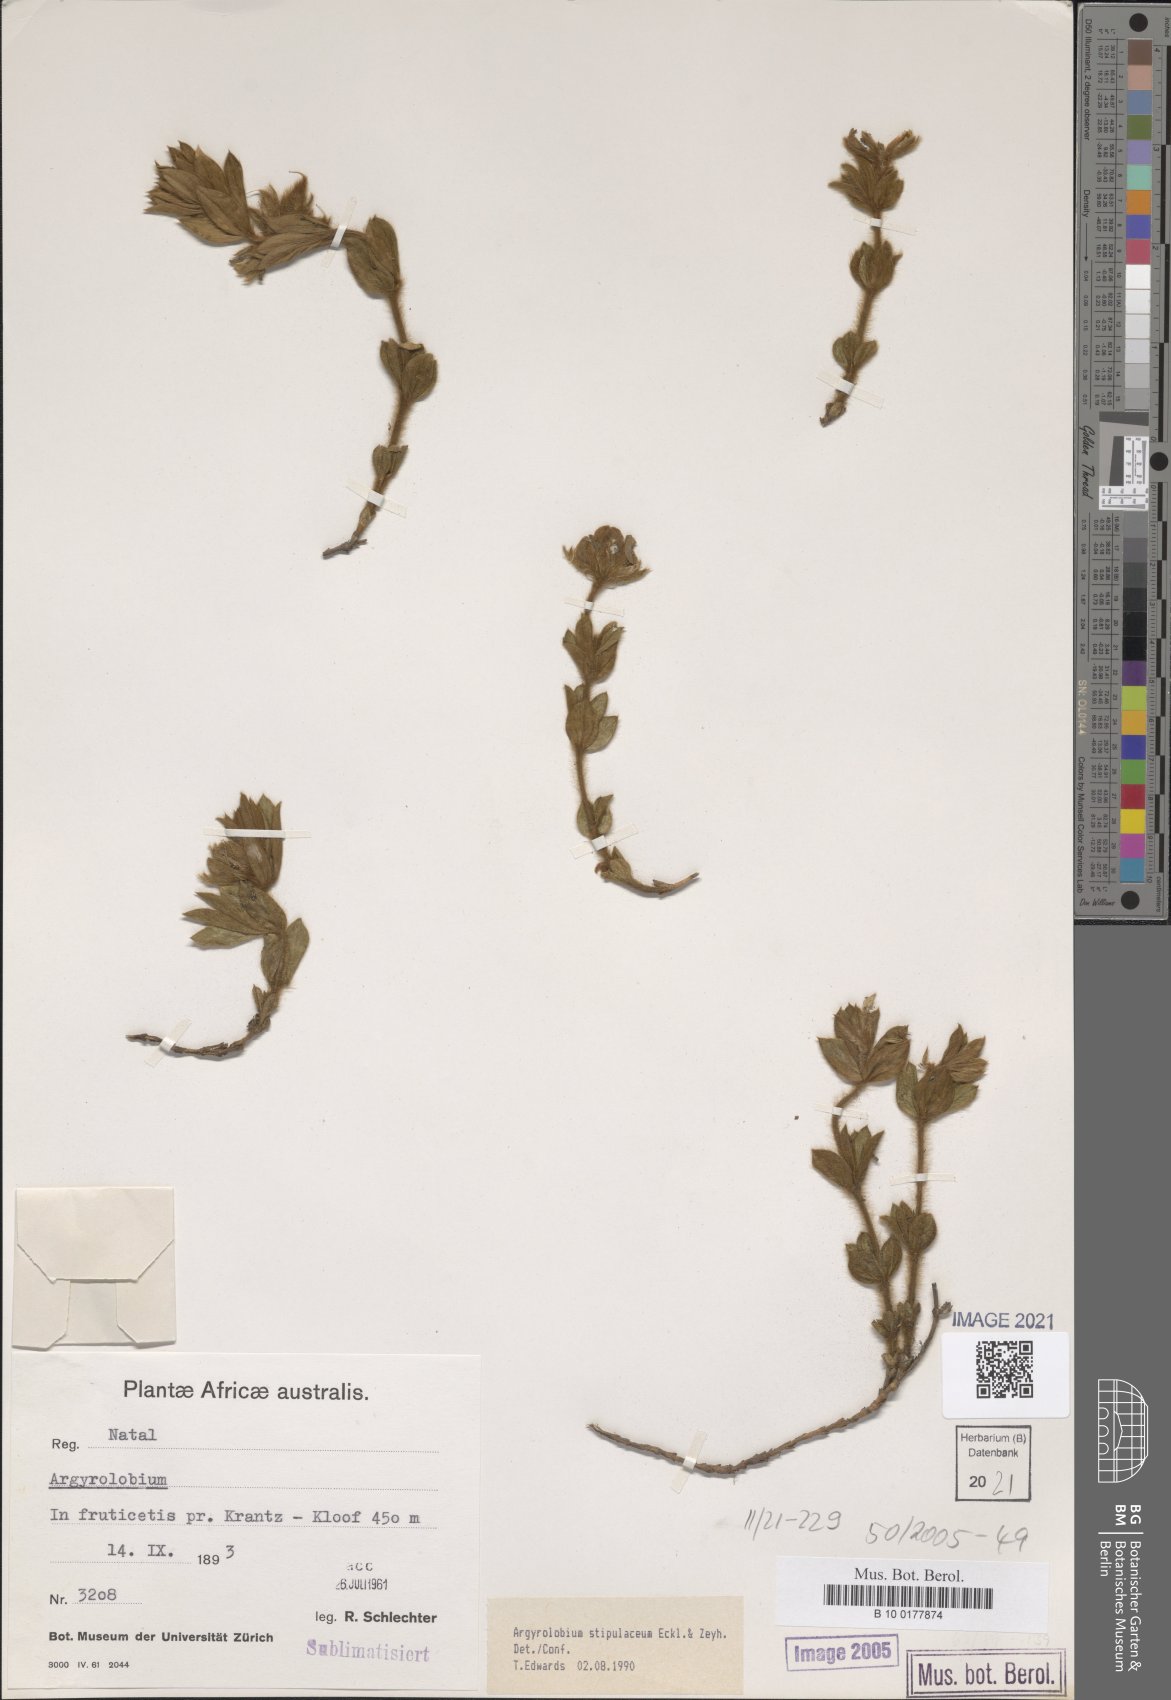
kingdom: Plantae
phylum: Tracheophyta
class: Magnoliopsida
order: Fabales
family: Fabaceae
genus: Argyrolobium
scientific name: Argyrolobium stipulaceum
